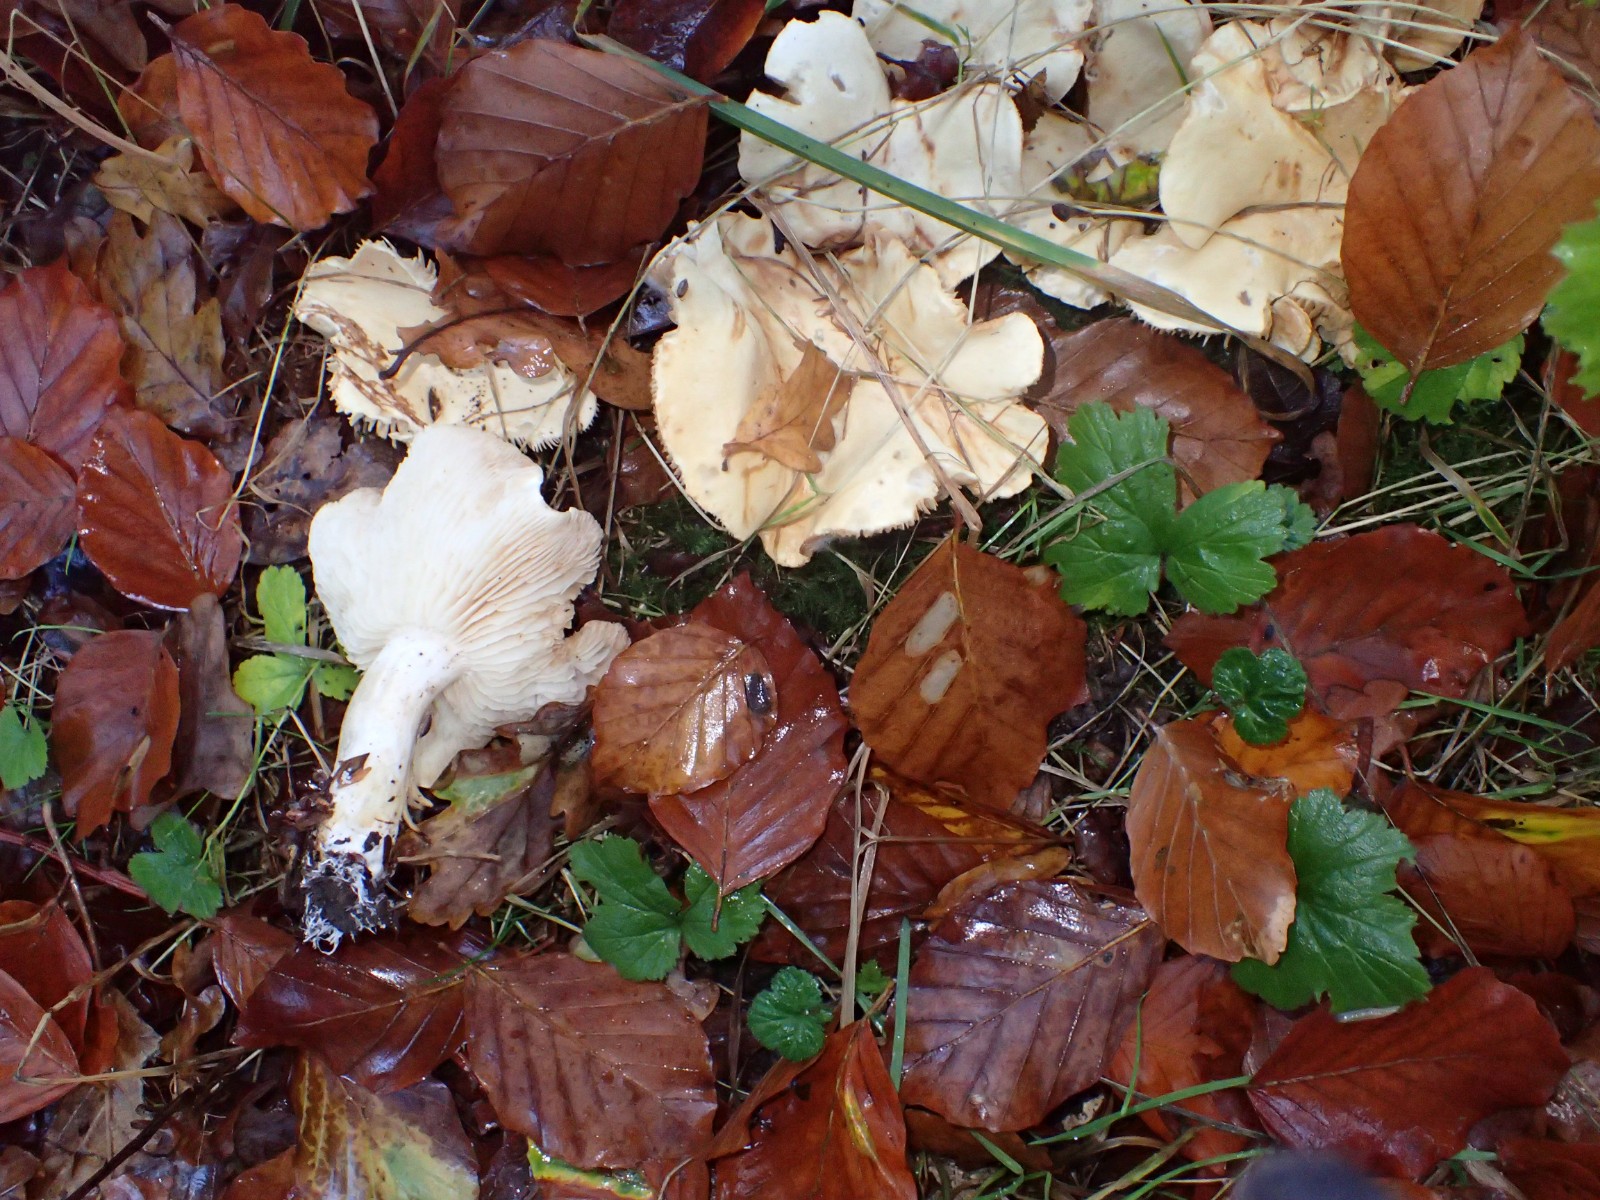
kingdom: Fungi
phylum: Basidiomycota
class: Agaricomycetes
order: Agaricales
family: Tricholomataceae
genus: Tricholoma
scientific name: Tricholoma stiparophyllum
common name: hvid ridderhat
